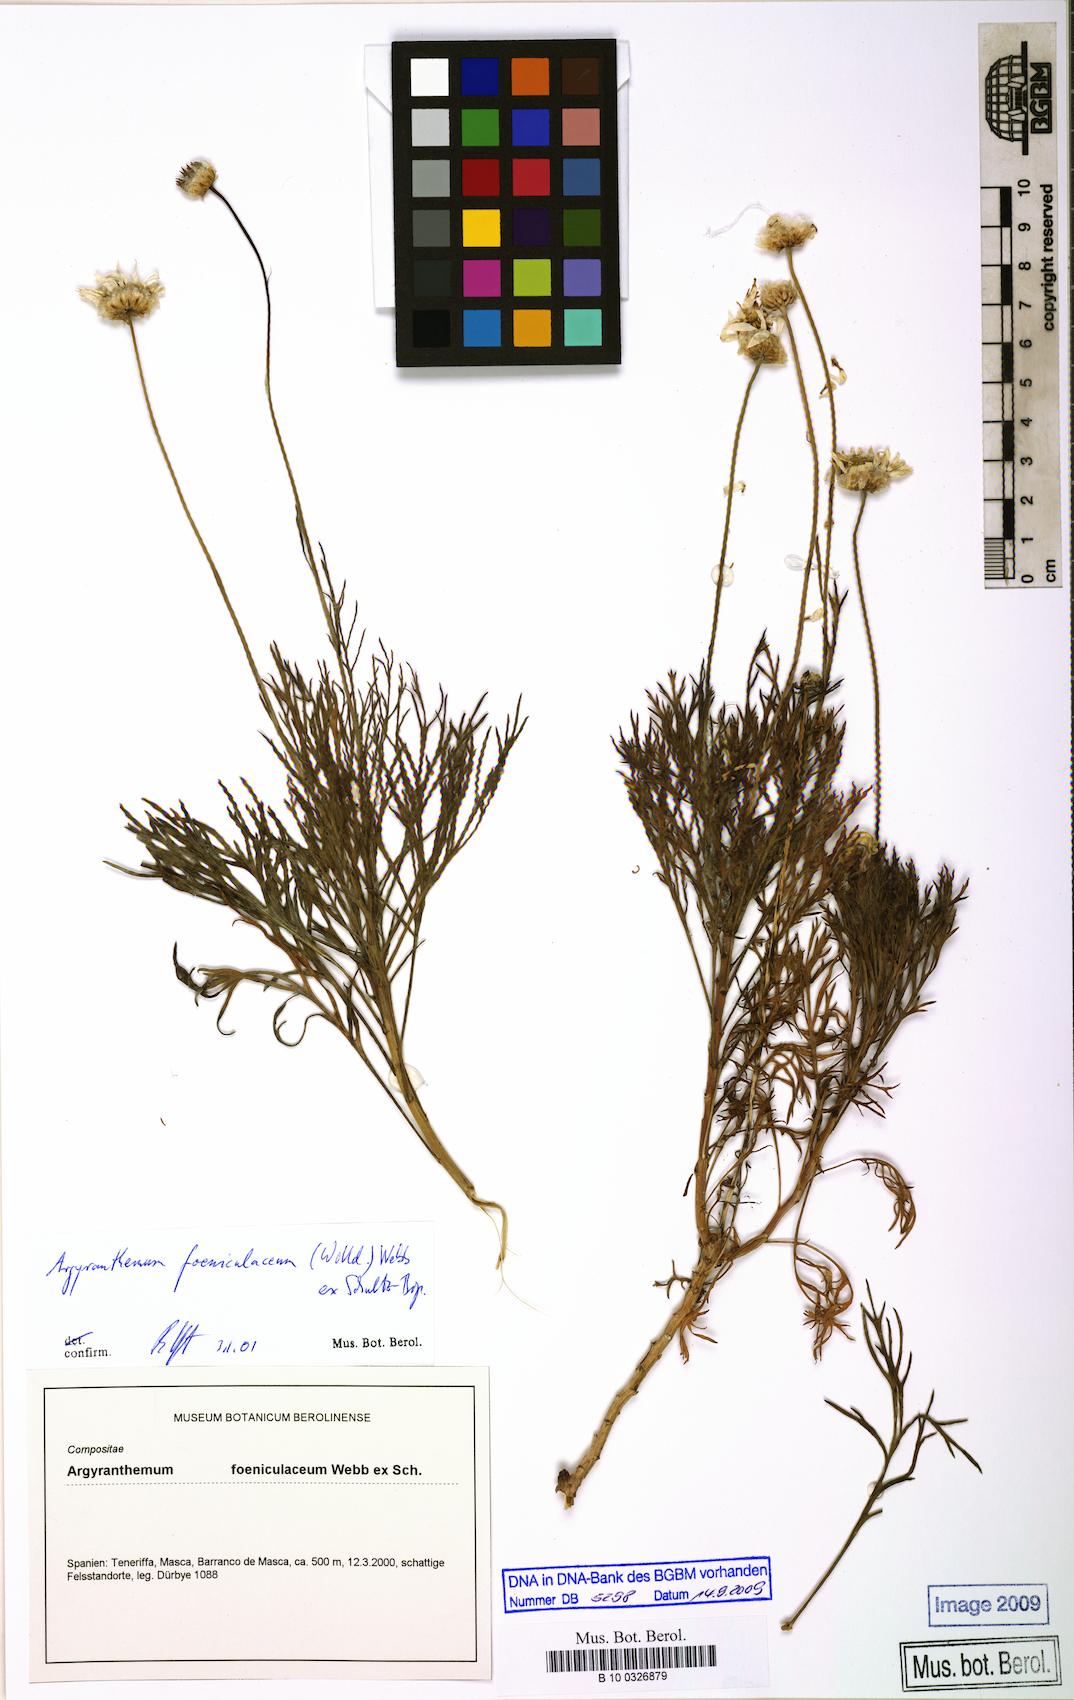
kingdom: Plantae
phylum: Tracheophyta
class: Magnoliopsida
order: Asterales
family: Asteraceae
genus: Argyranthemum
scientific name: Argyranthemum foeniculaceum
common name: Canary island marguerite
